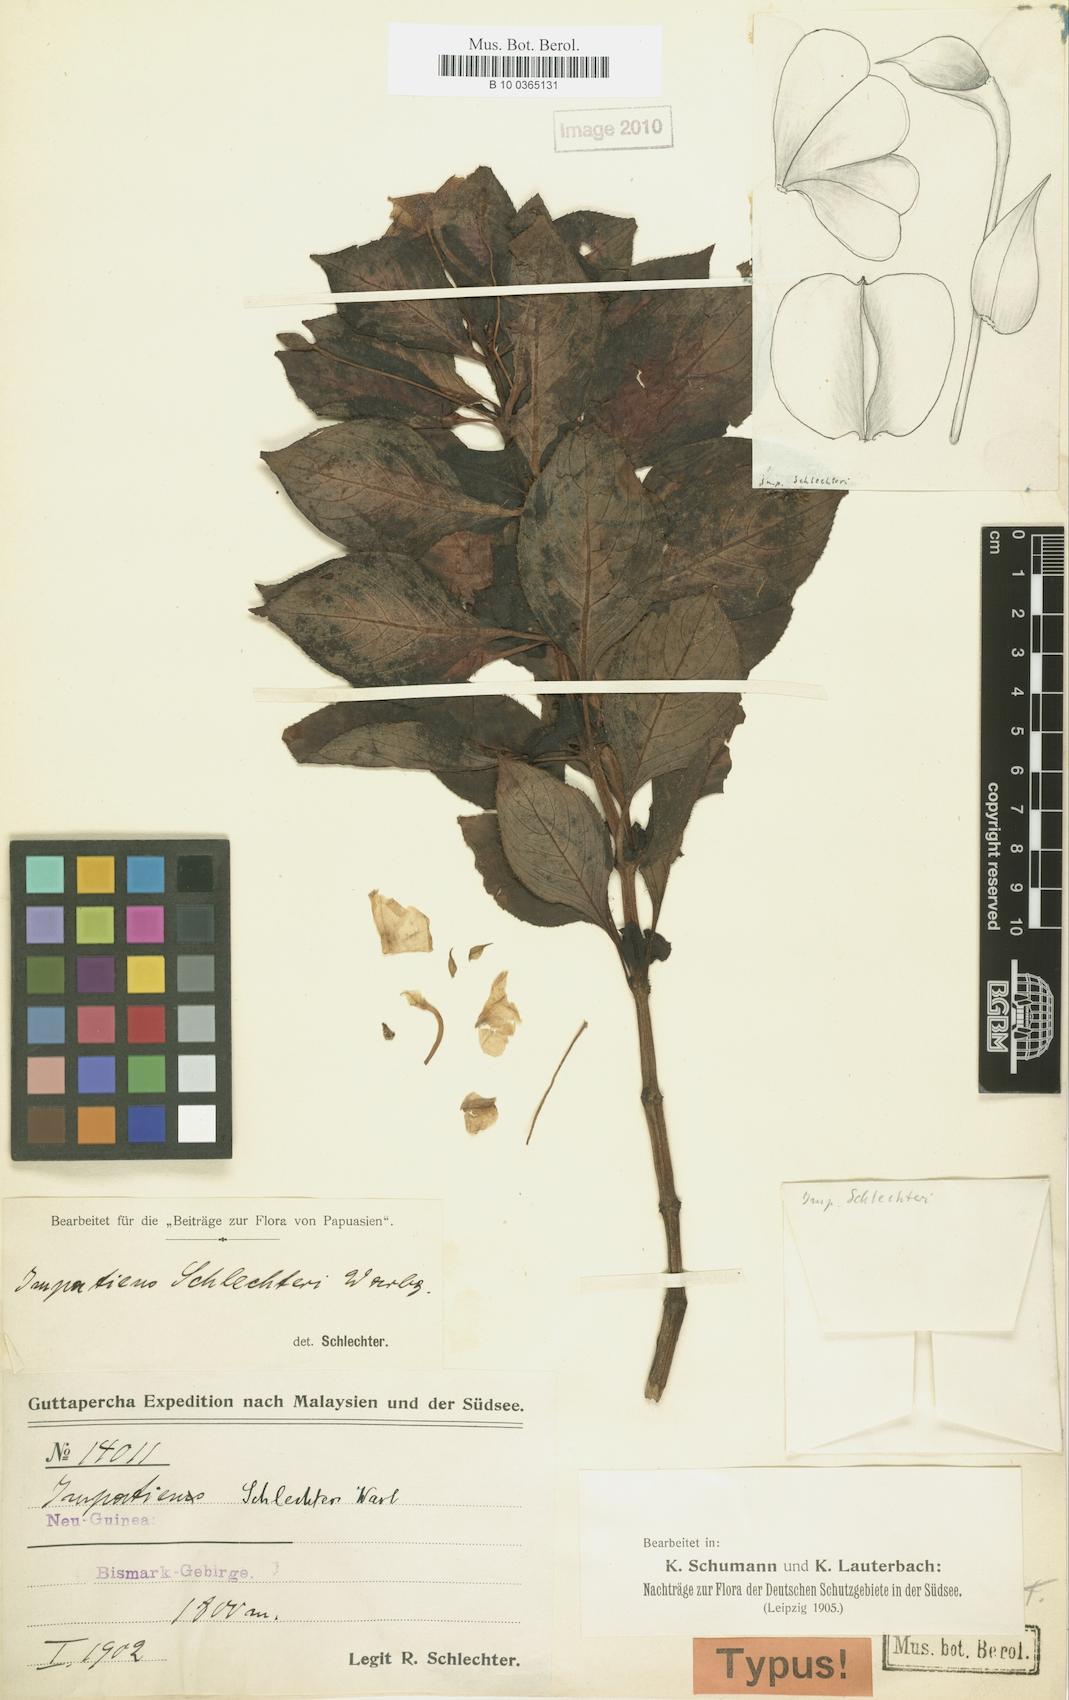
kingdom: Plantae
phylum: Tracheophyta
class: Magnoliopsida
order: Ericales
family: Balsaminaceae
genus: Impatiens
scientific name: Impatiens hawkeri
